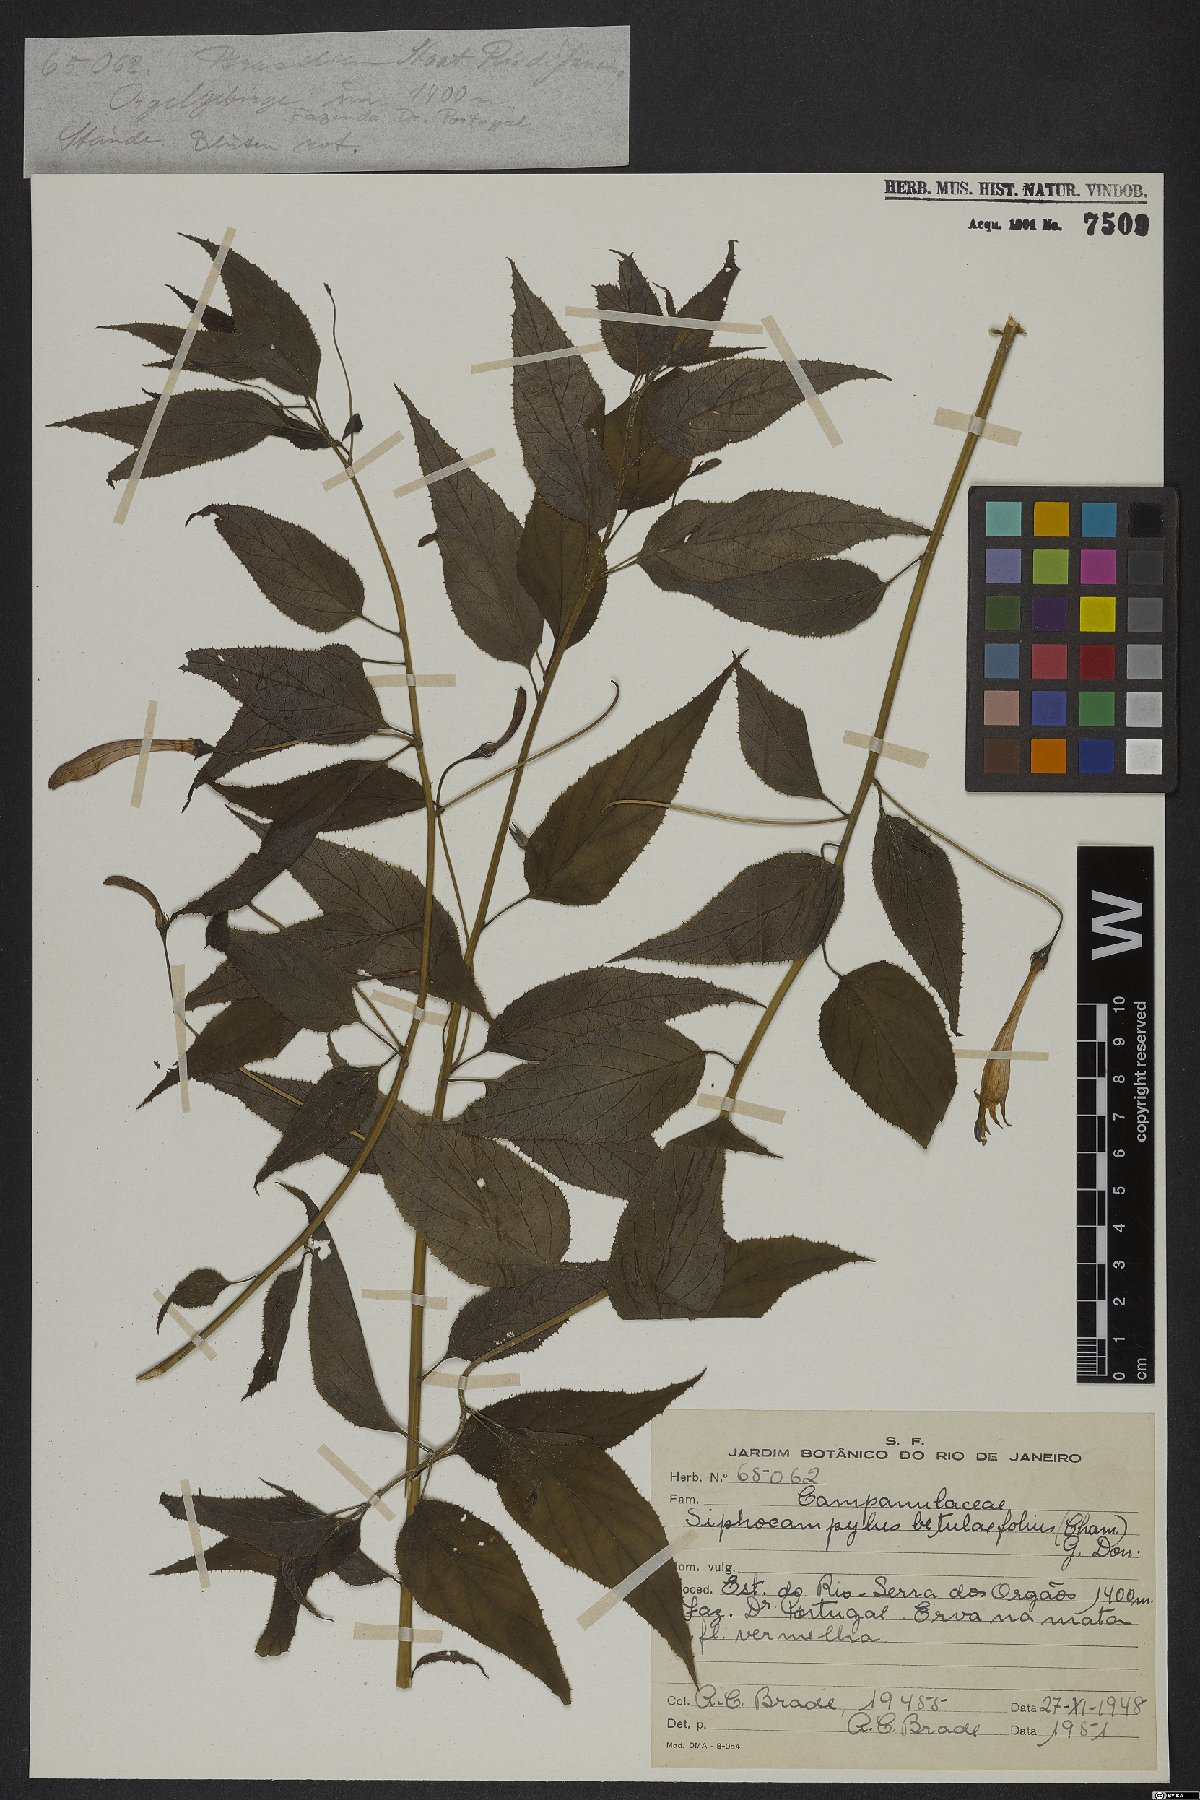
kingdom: Plantae
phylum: Tracheophyta
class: Magnoliopsida
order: Asterales
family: Campanulaceae
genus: Siphocampylus
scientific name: Siphocampylus betulifolius
